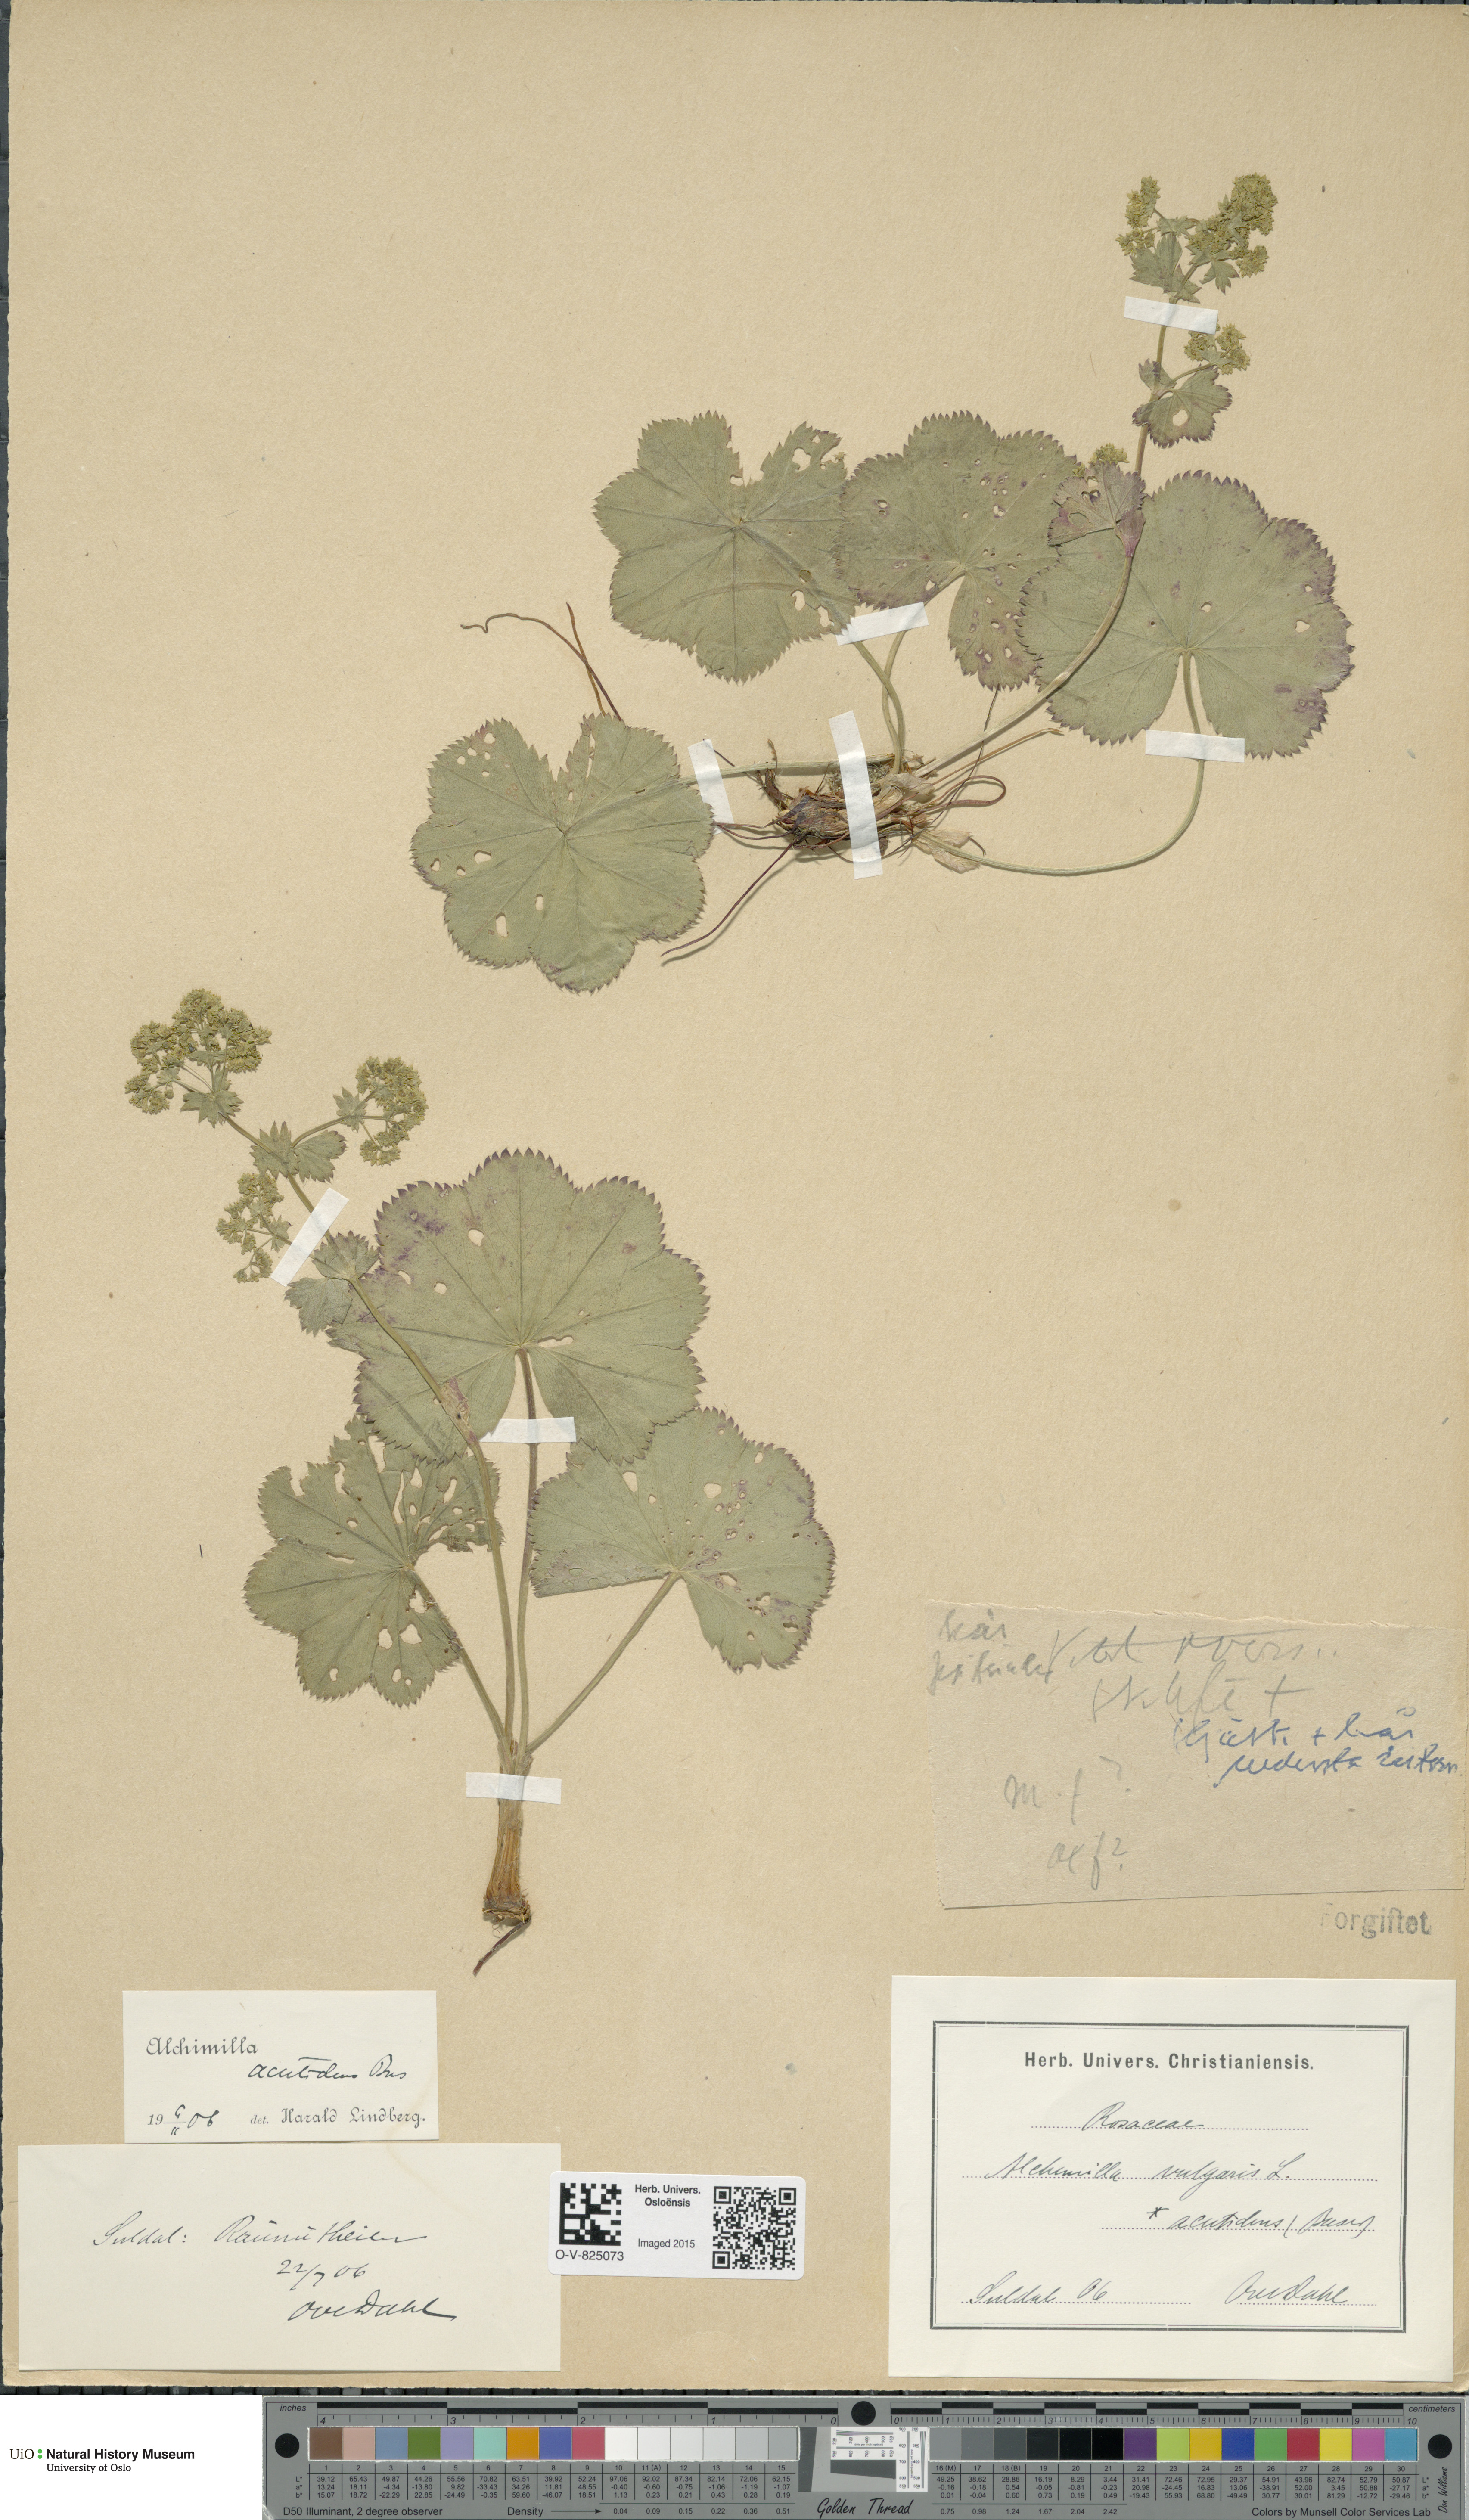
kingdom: Plantae
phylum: Tracheophyta
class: Magnoliopsida
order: Rosales
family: Rosaceae
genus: Alchemilla
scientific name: Alchemilla wichurae
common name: Rock lady's mantle
